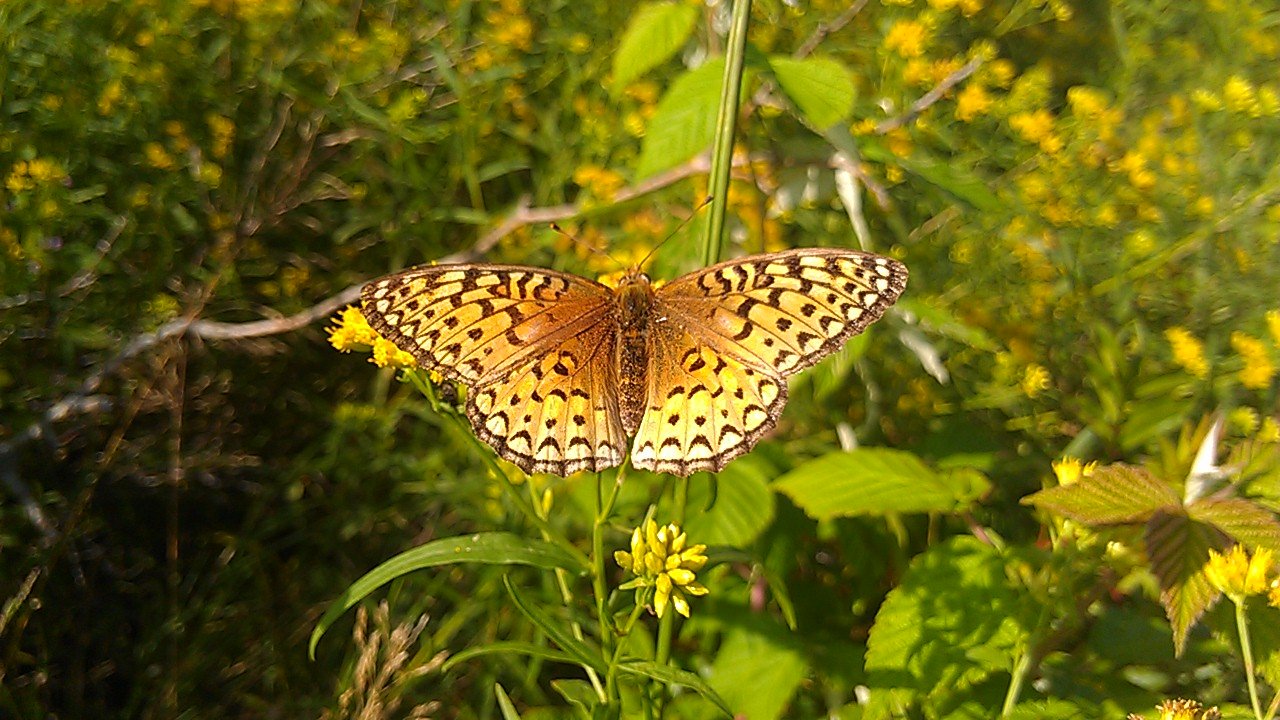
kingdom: Animalia
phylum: Arthropoda
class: Insecta
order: Lepidoptera
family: Nymphalidae
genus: Speyeria
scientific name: Speyeria atlantis
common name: Atlantis Fritillary
